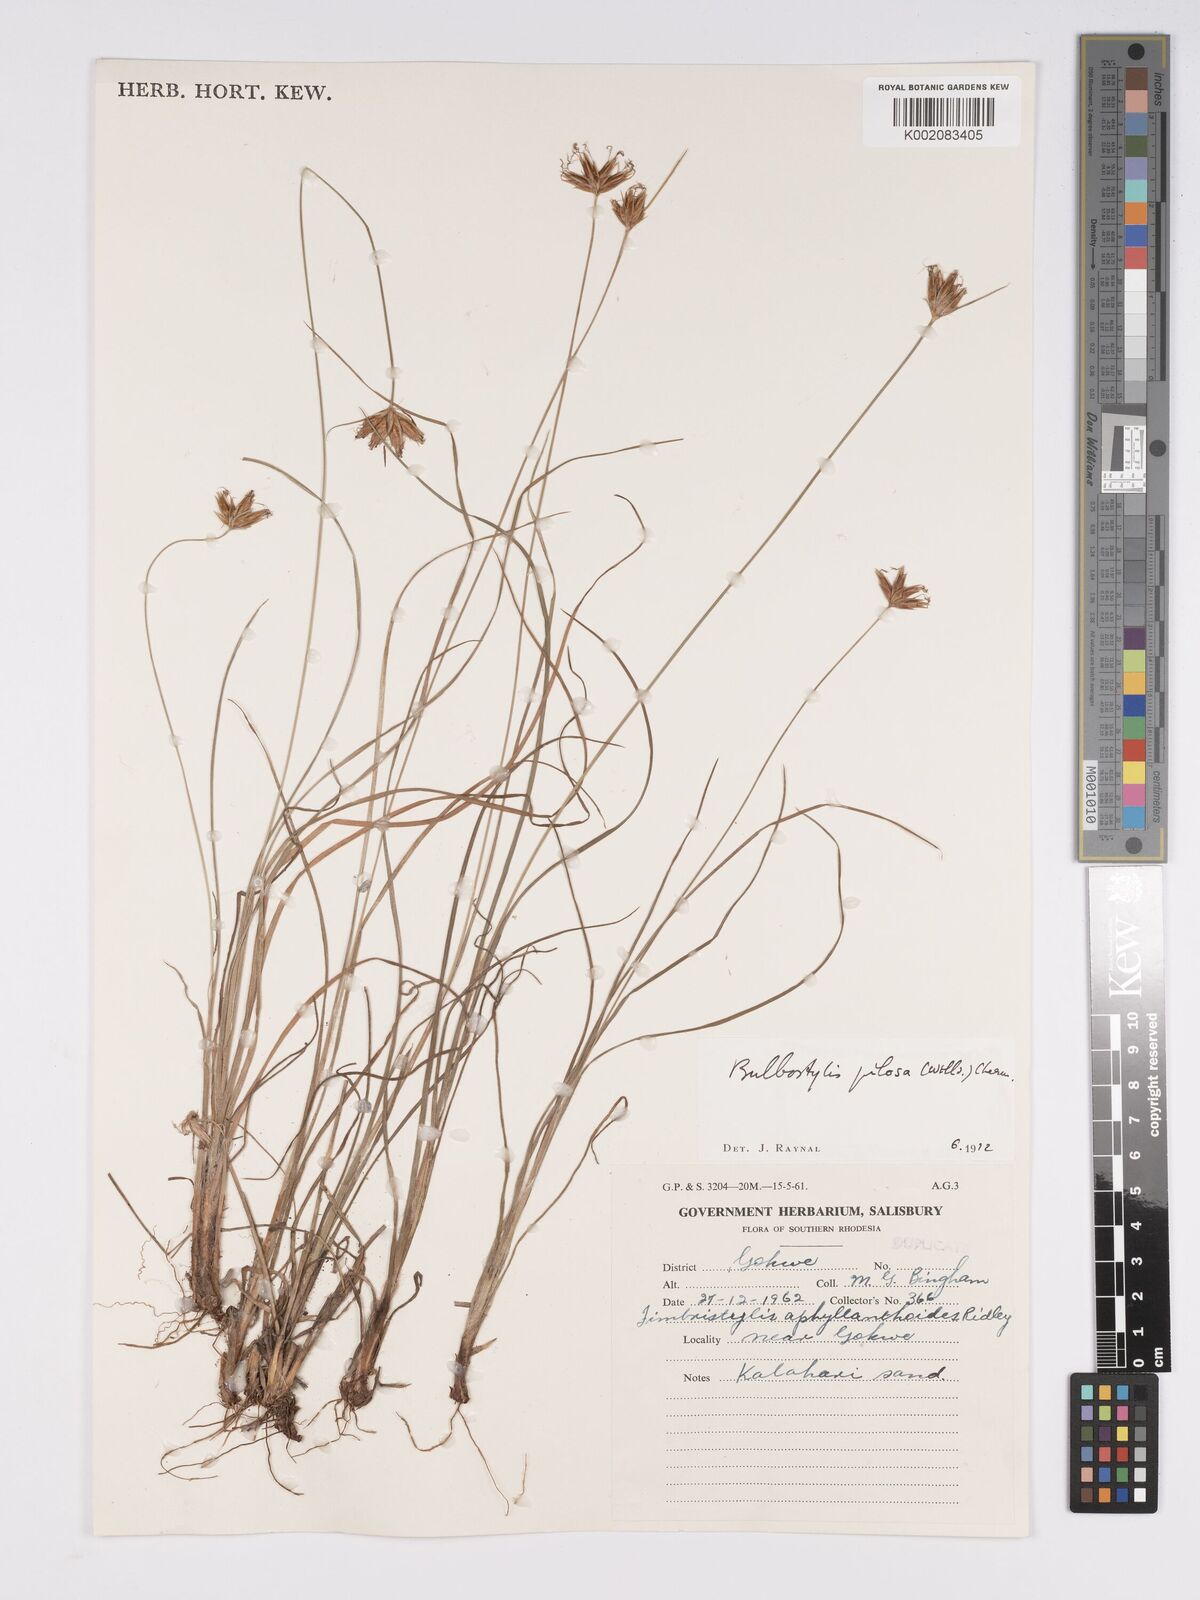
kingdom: Plantae
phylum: Tracheophyta
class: Liliopsida
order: Poales
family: Cyperaceae
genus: Bulbostylis
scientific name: Bulbostylis pilosa
